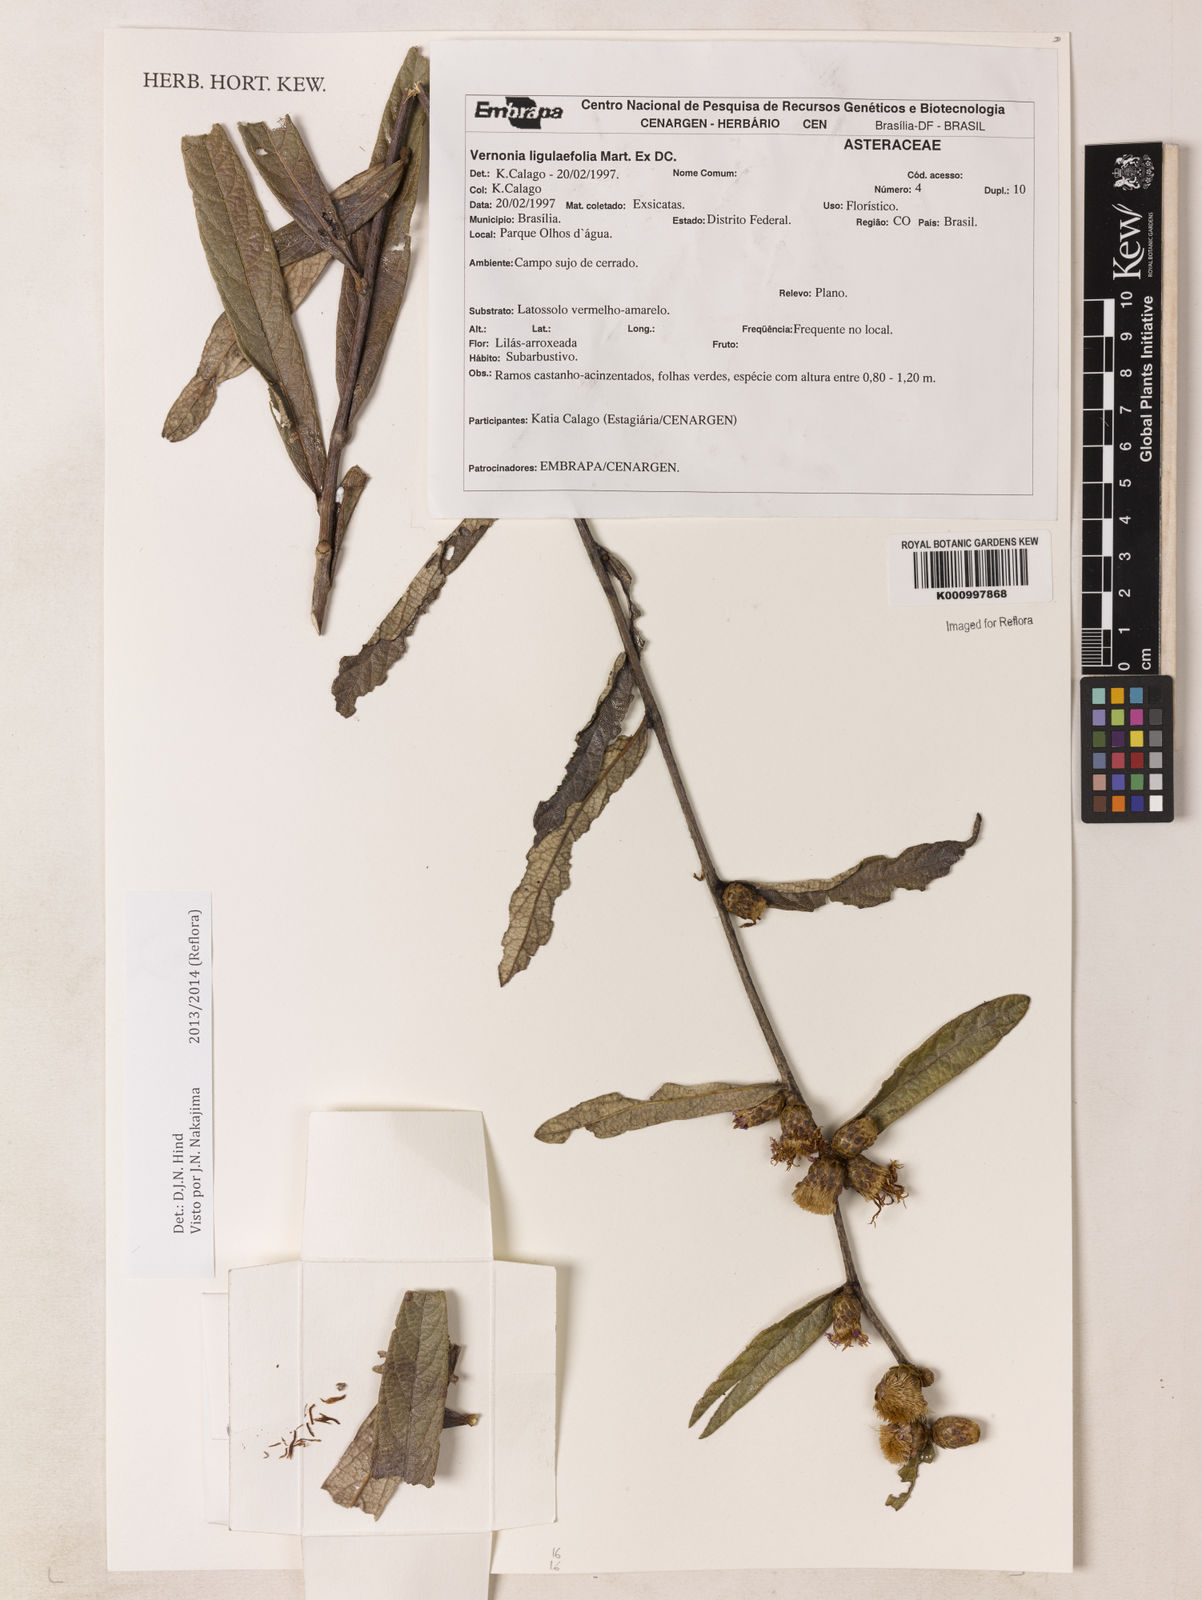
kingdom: Plantae
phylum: Tracheophyta
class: Magnoliopsida
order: Asterales
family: Asteraceae
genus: Lessingianthus
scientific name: Lessingianthus ligulifolius
